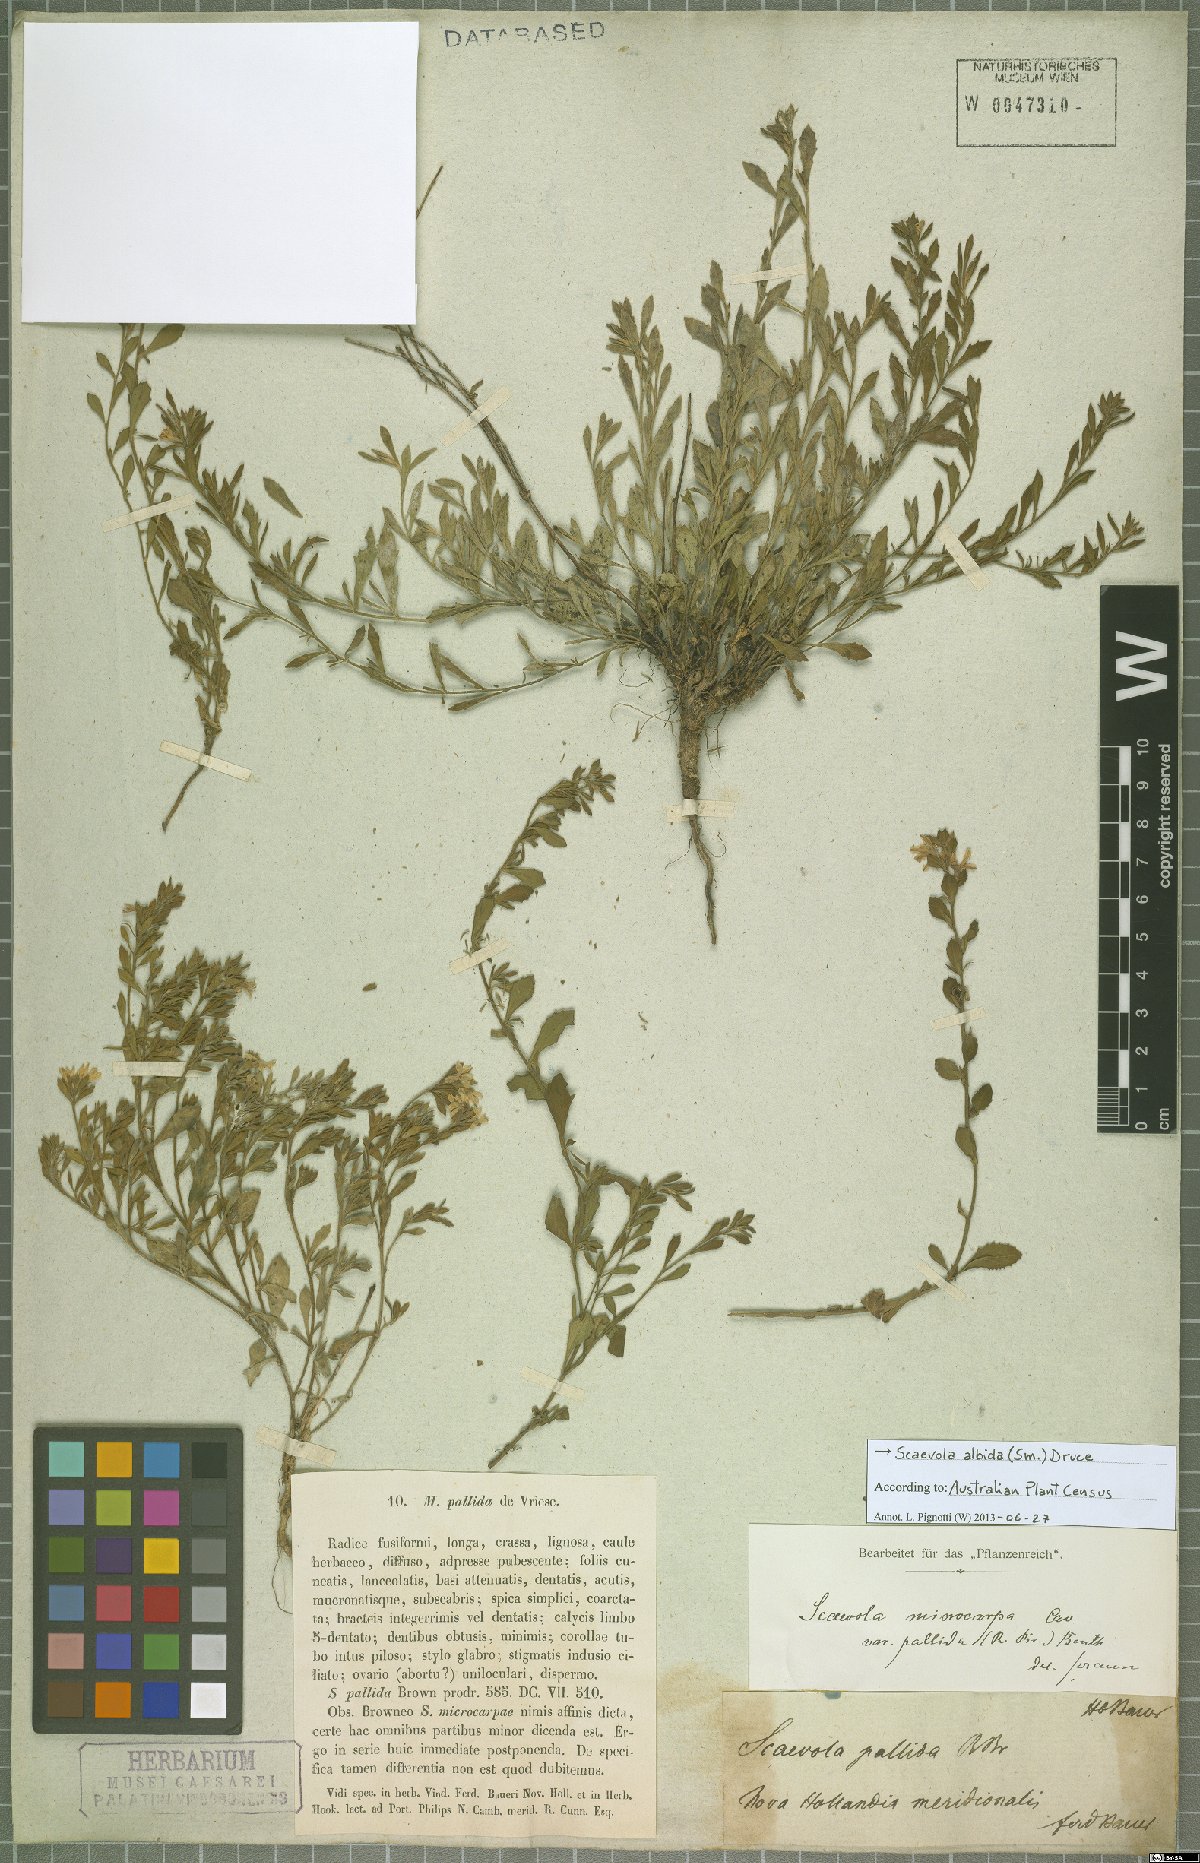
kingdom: Plantae
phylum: Tracheophyta
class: Magnoliopsida
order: Asterales
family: Goodeniaceae
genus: Scaevola
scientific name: Scaevola albida
